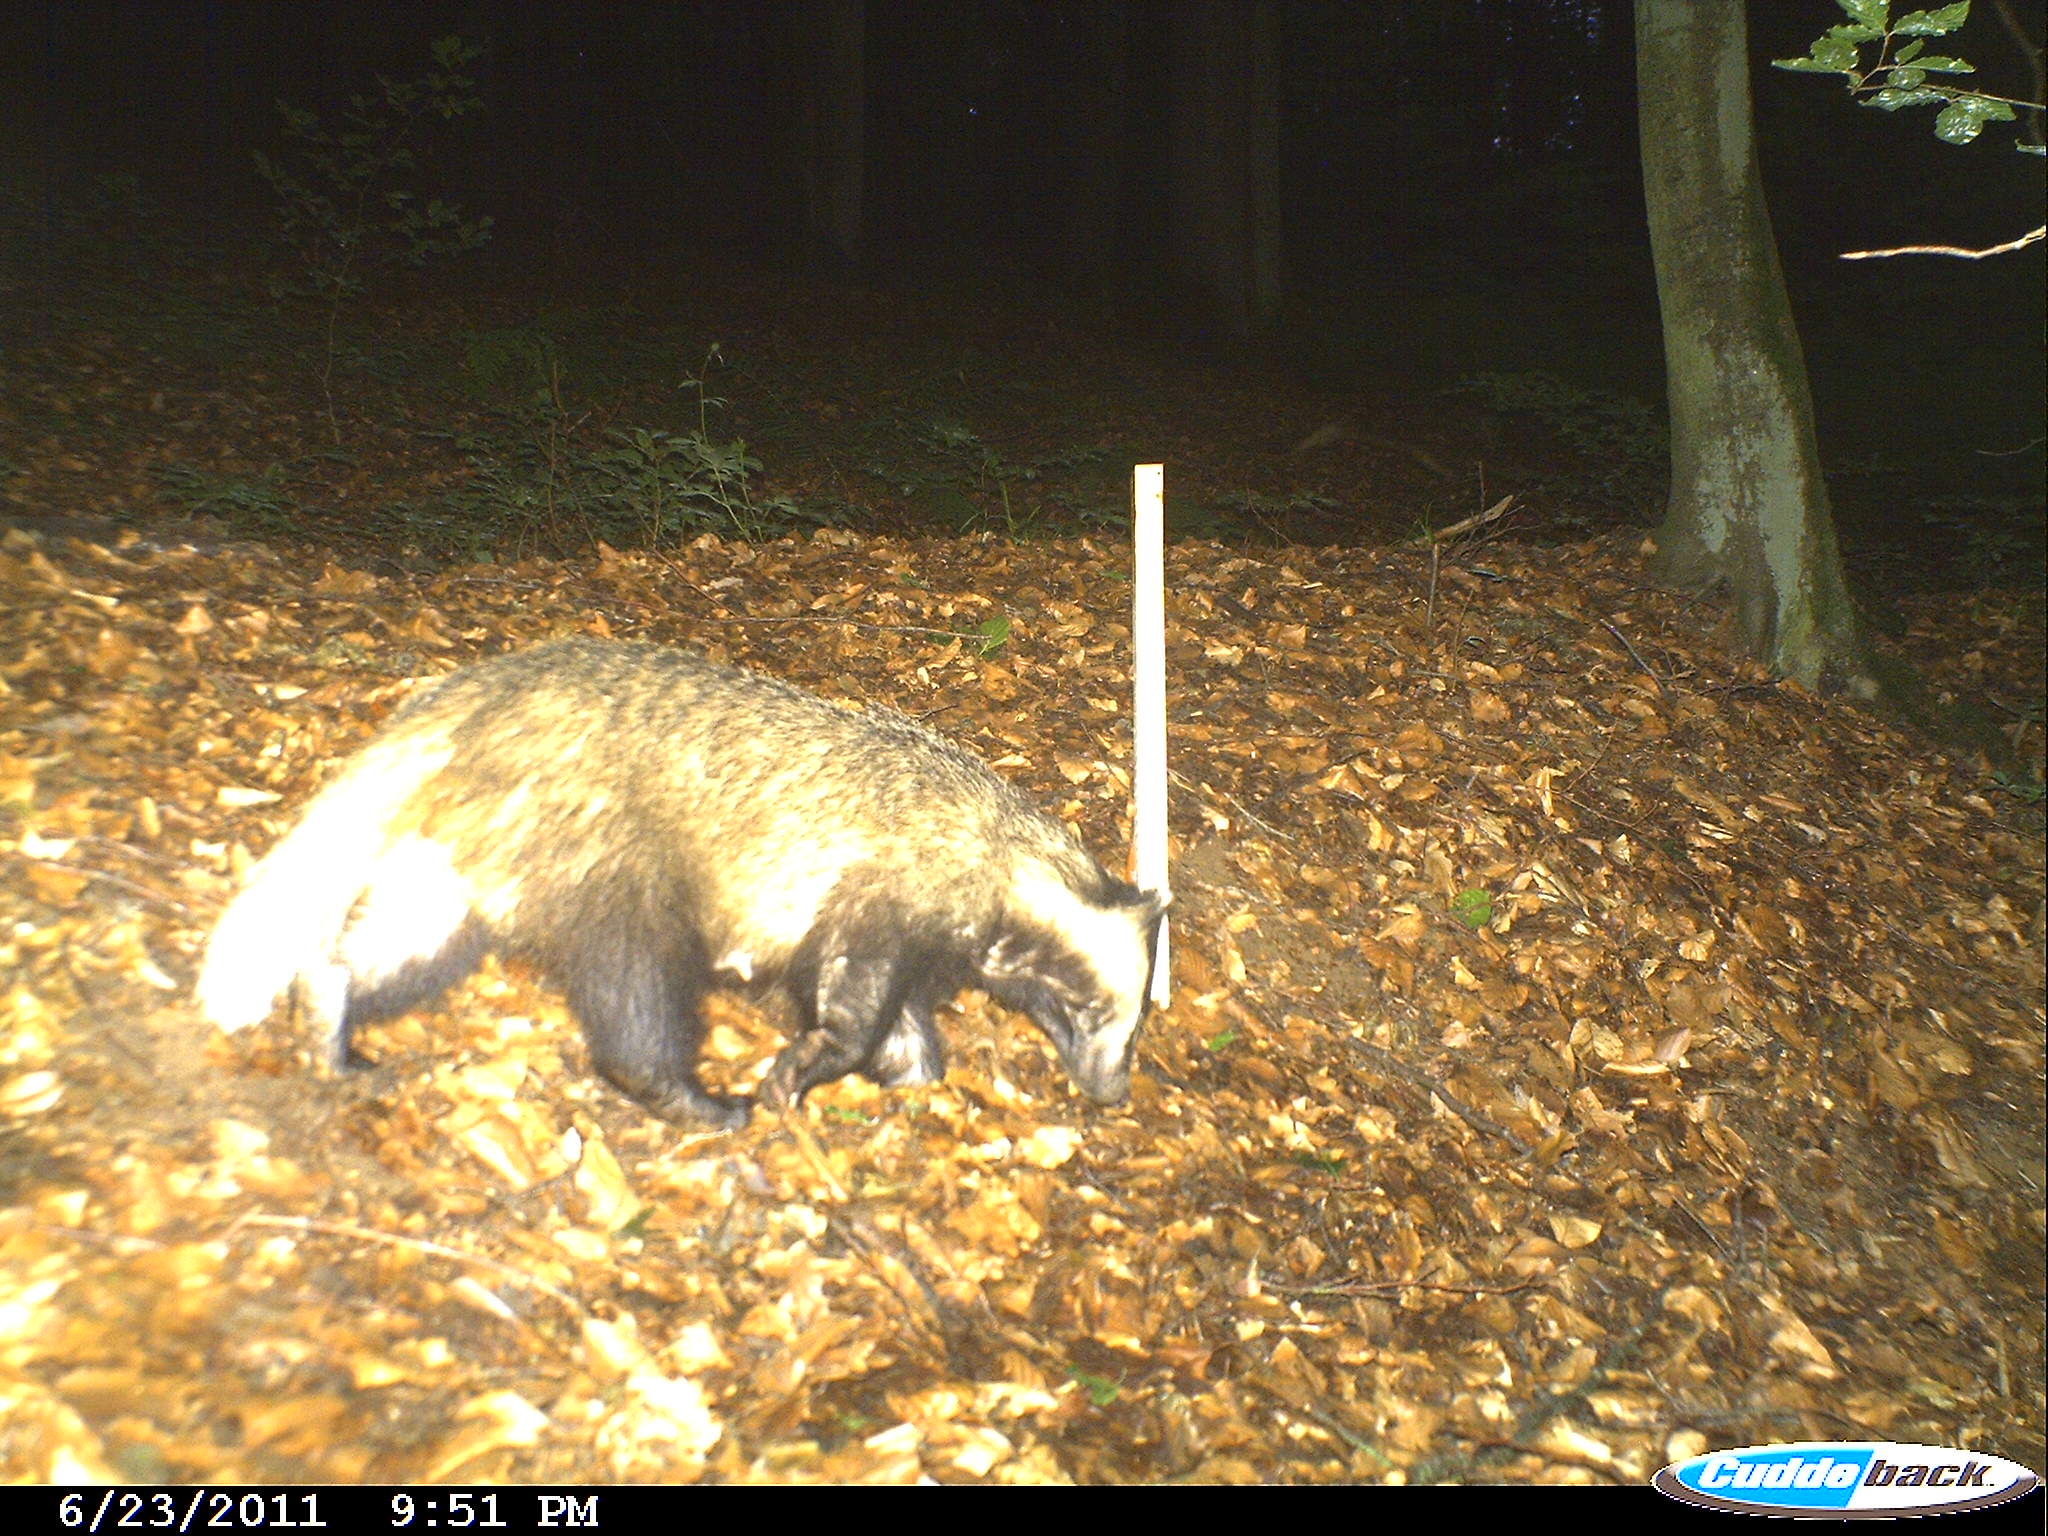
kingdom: Animalia
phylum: Chordata
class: Mammalia
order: Carnivora
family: Mustelidae
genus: Meles
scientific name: Meles meles
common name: Eurasian badger
